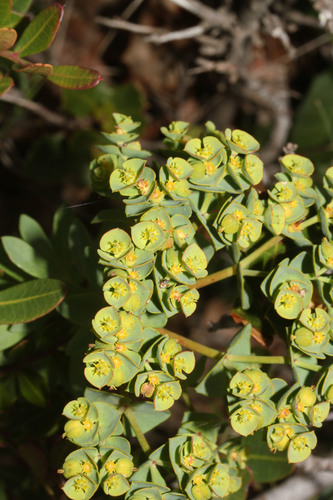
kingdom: Plantae
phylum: Tracheophyta
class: Magnoliopsida
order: Malpighiales
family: Euphorbiaceae
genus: Euphorbia
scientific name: Euphorbia portlandica
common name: Portland spurge
